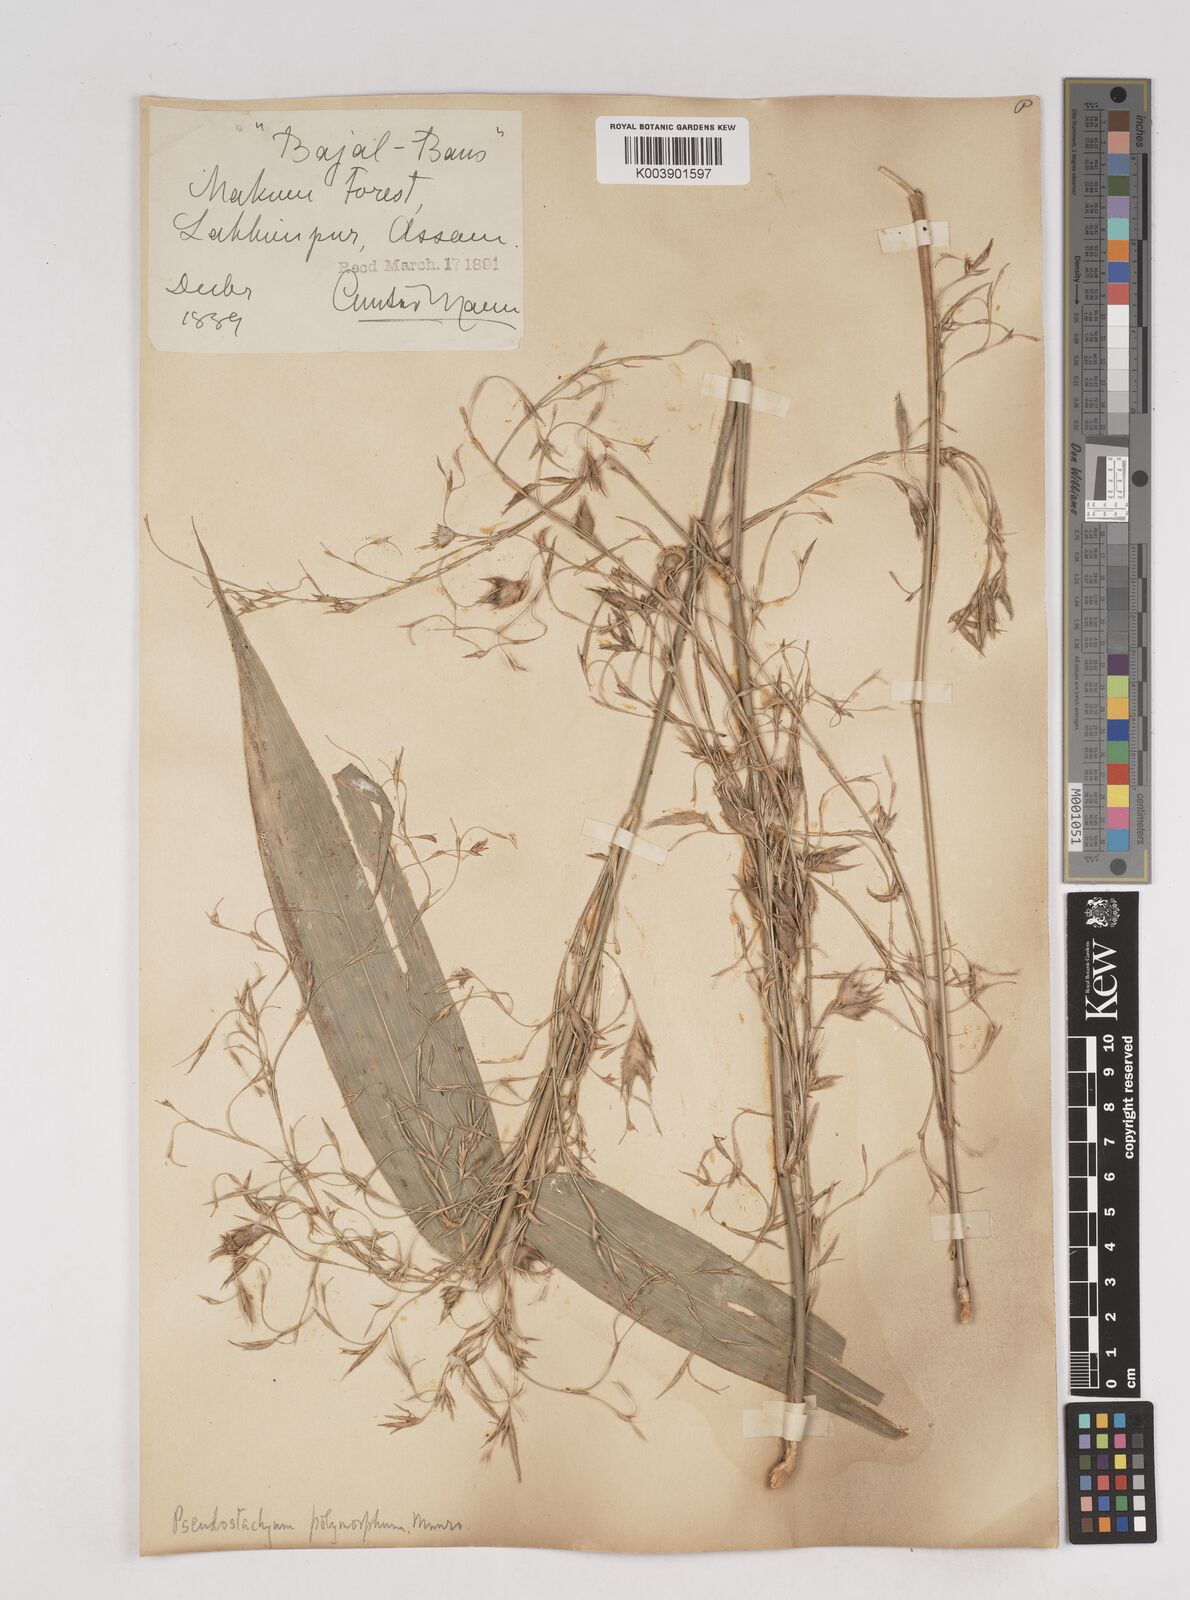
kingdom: Plantae
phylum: Tracheophyta
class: Liliopsida
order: Poales
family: Poaceae
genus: Pseudostachyum
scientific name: Pseudostachyum polymorphum
